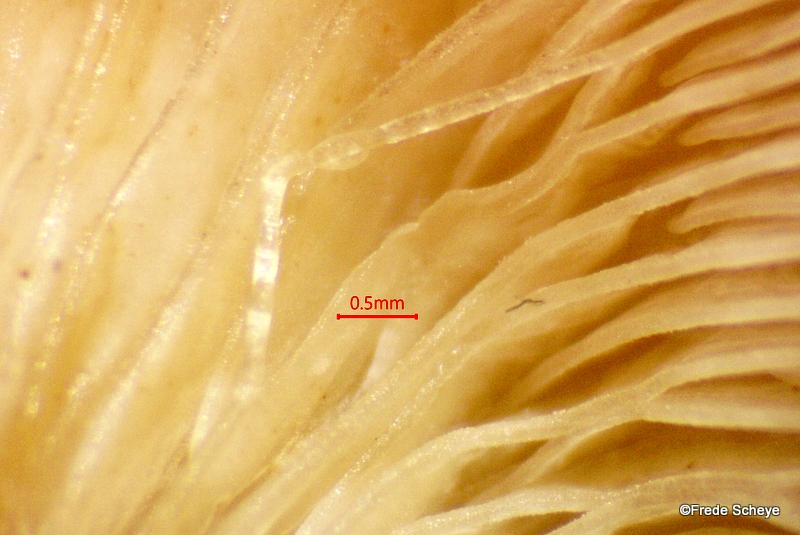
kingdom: Fungi
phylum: Basidiomycota
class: Agaricomycetes
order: Agaricales
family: Mycenaceae
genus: Panellus
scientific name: Panellus mitis
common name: mild epaulethat
